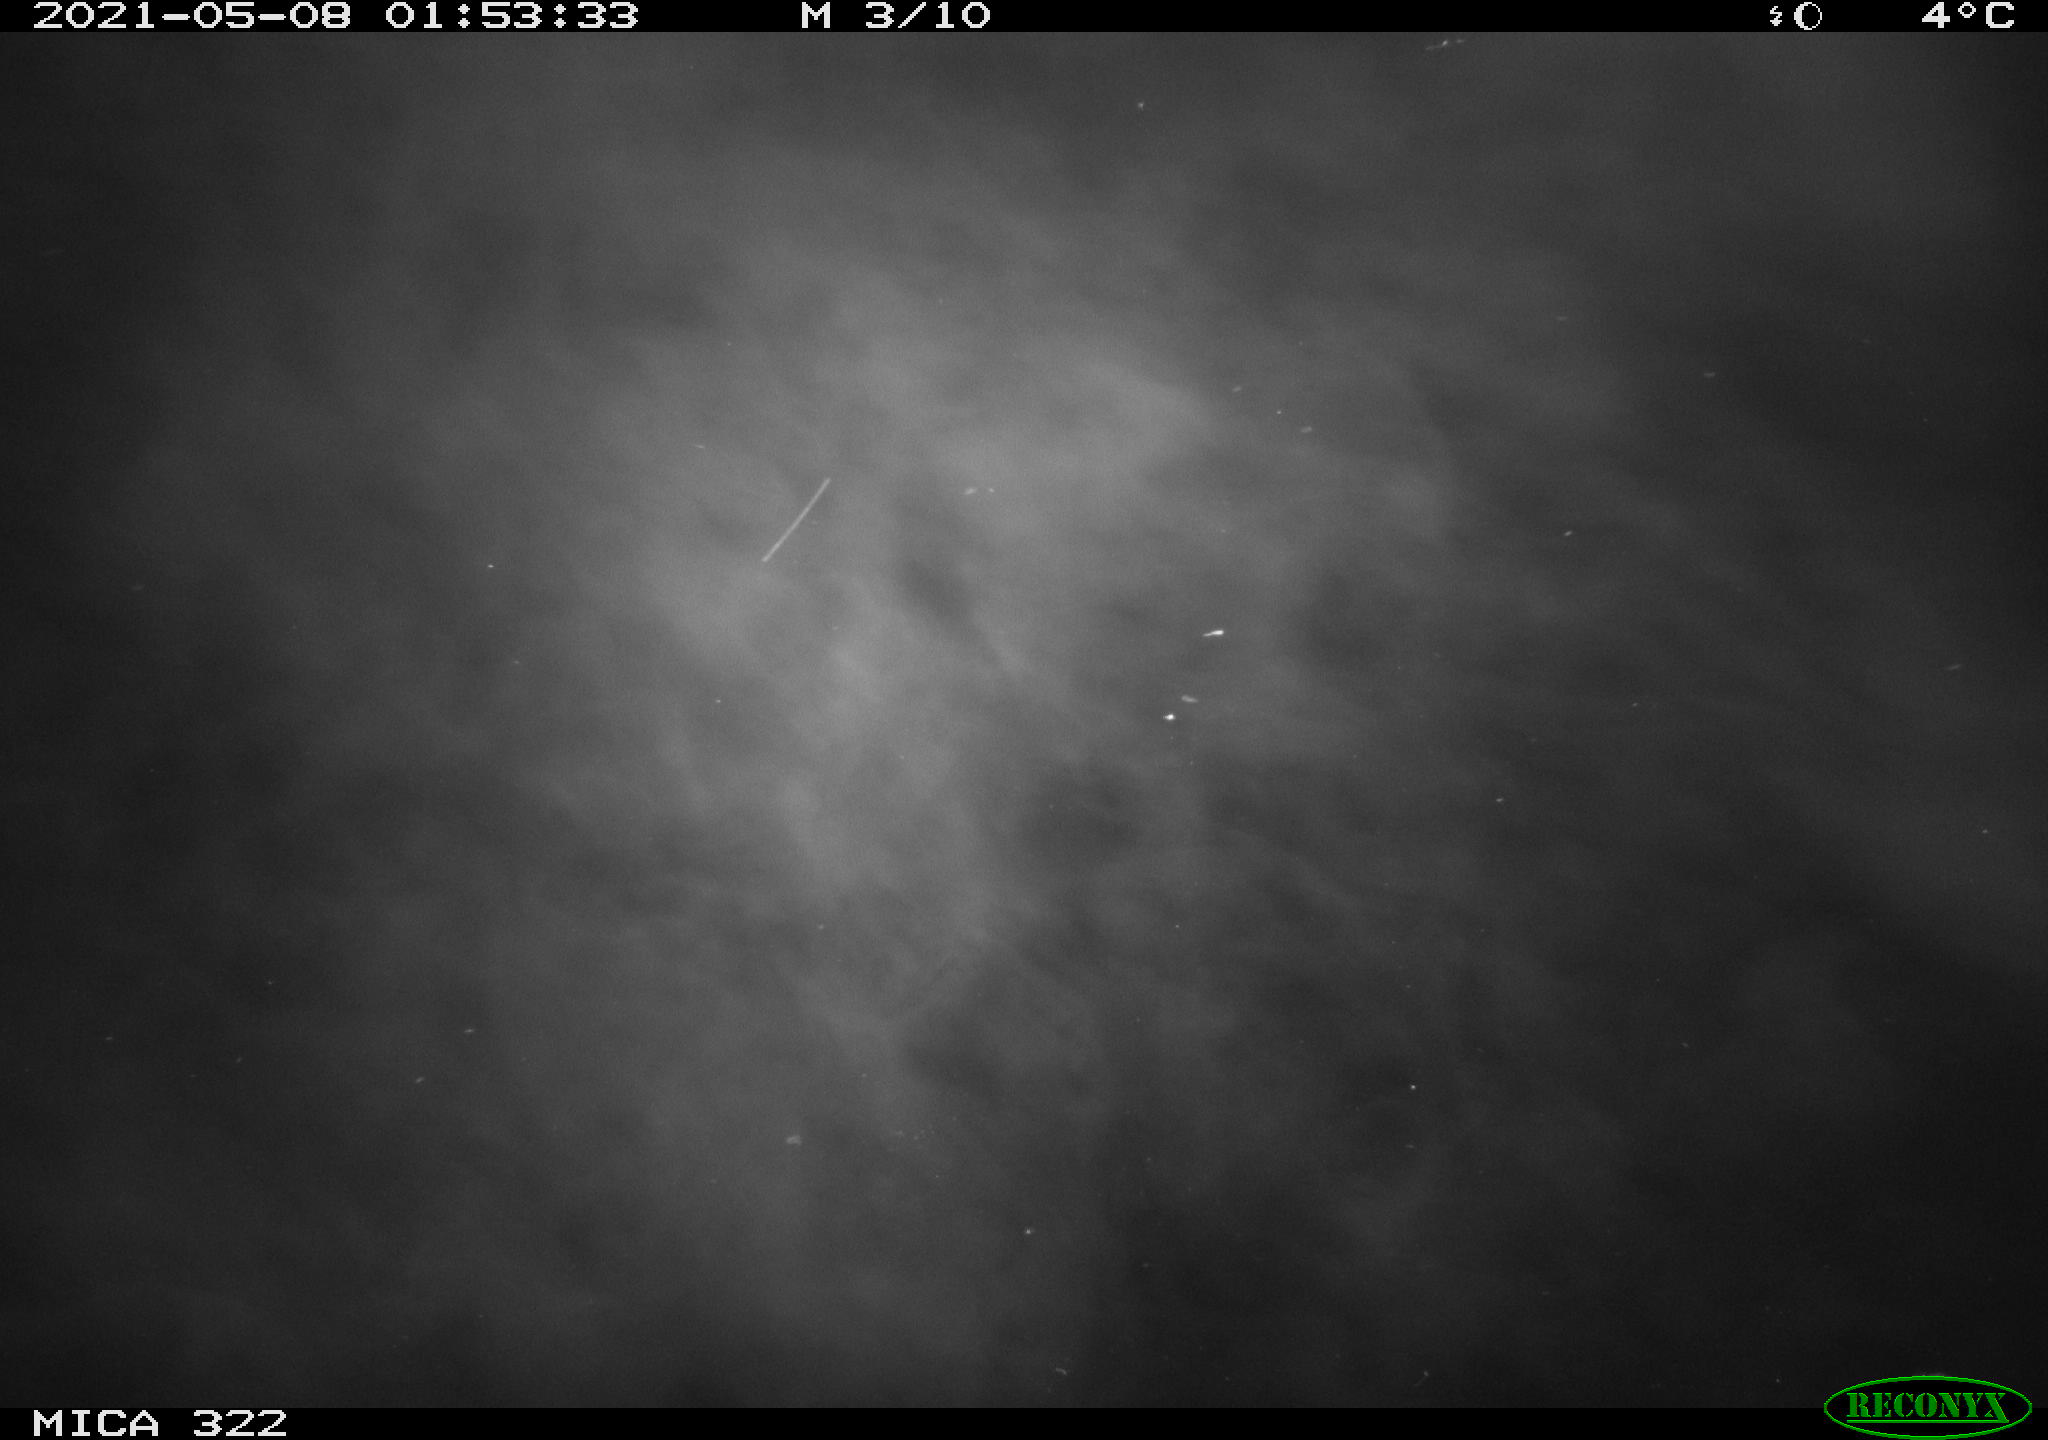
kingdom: Animalia
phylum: Chordata
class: Aves
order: Anseriformes
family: Anatidae
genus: Anas
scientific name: Anas platyrhynchos
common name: Mallard
